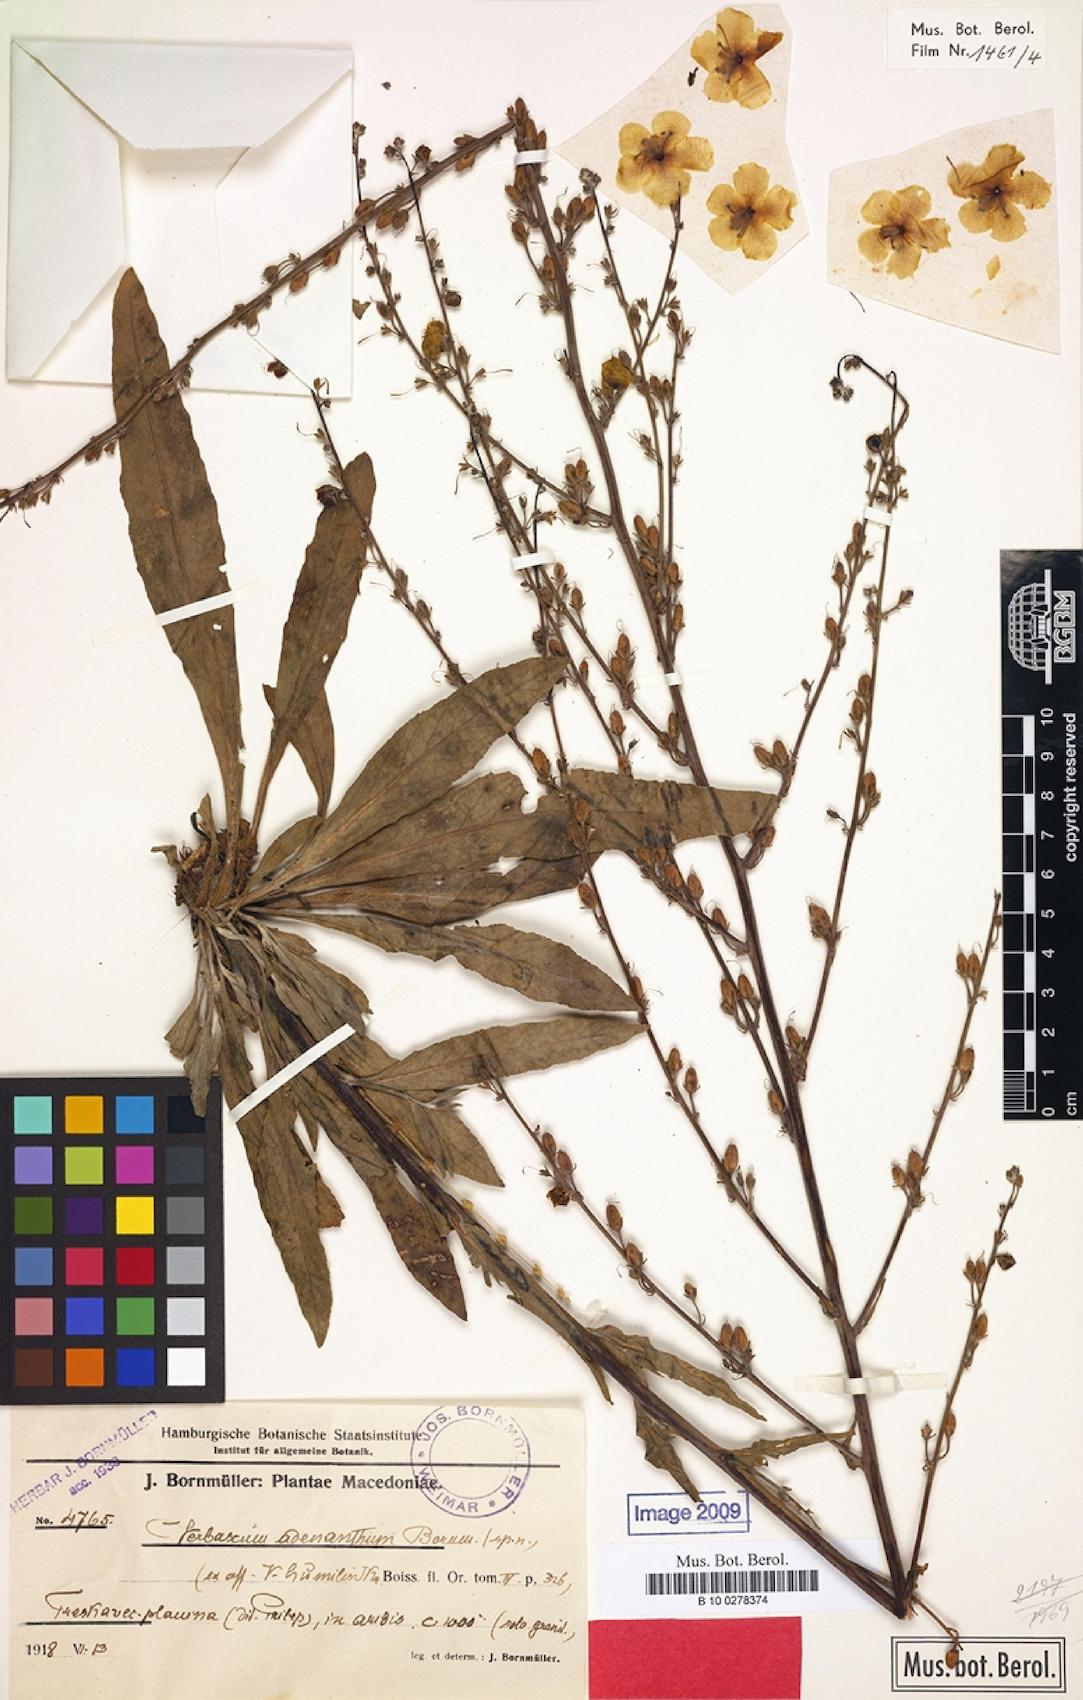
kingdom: Plantae
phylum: Tracheophyta
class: Magnoliopsida
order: Lamiales
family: Scrophulariaceae
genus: Verbascum
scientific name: Verbascum adenanthum
